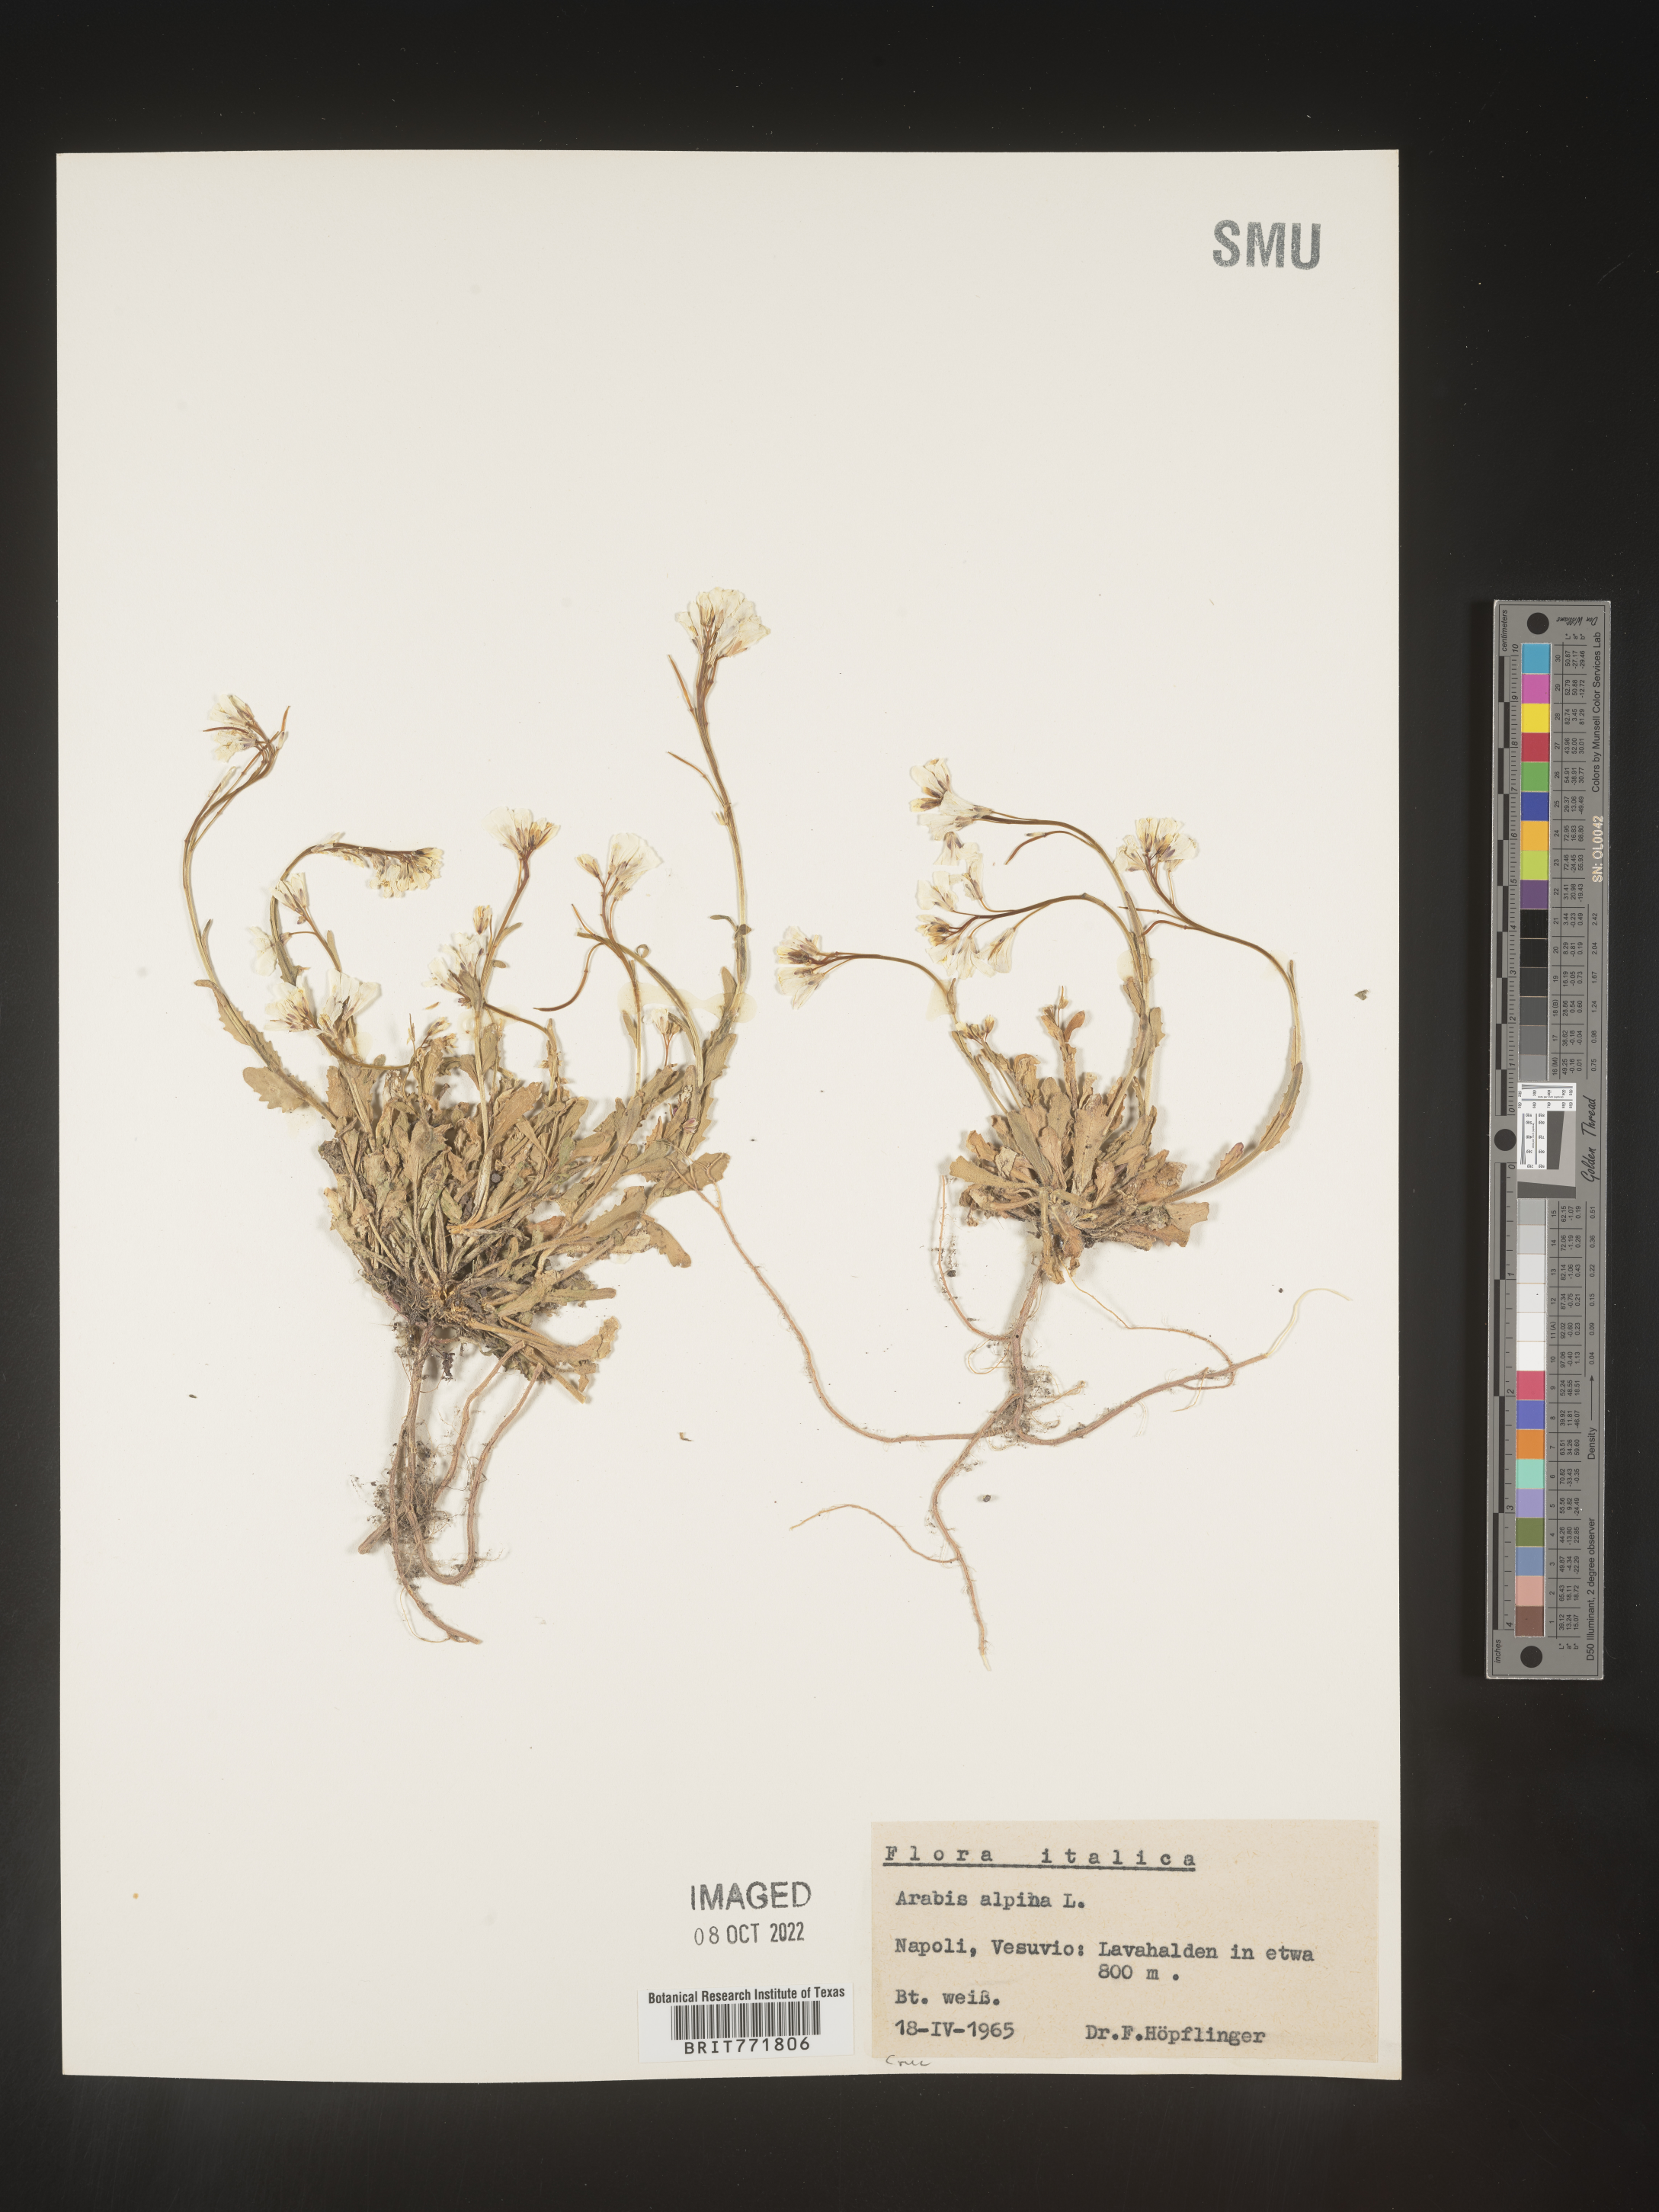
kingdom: Plantae
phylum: Tracheophyta
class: Magnoliopsida
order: Brassicales
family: Brassicaceae
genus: Arabis
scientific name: Arabis
